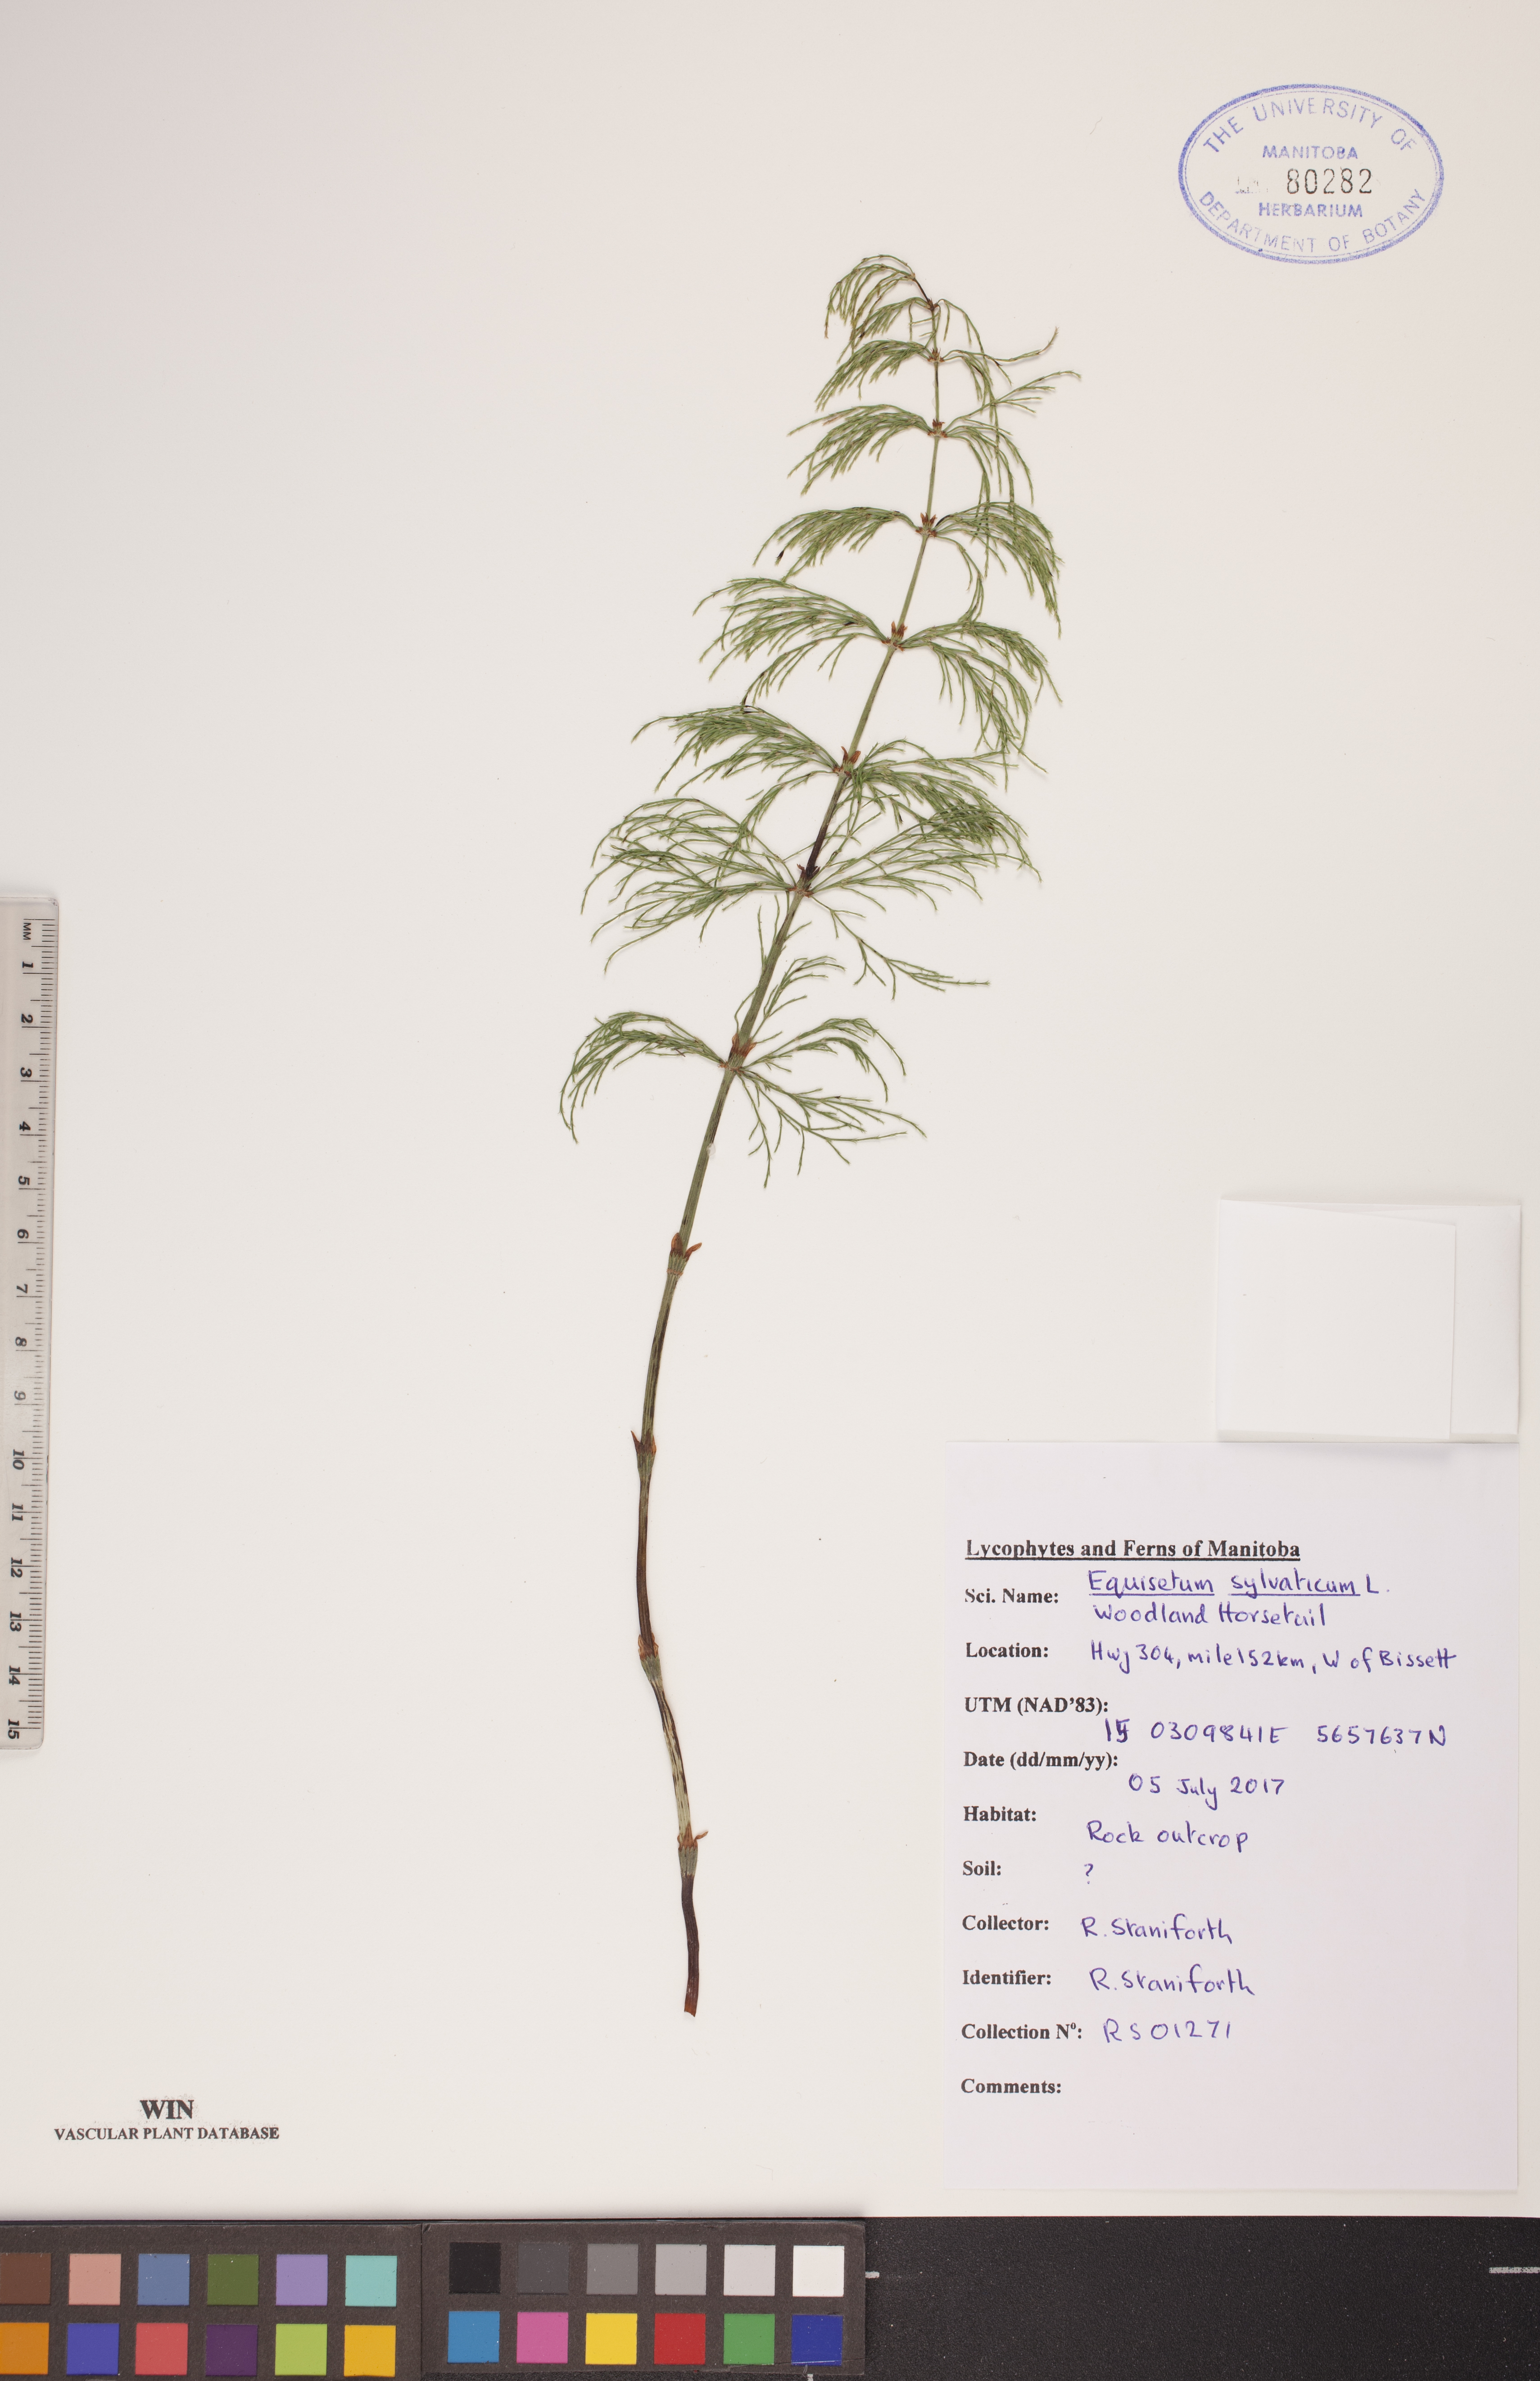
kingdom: Plantae
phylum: Tracheophyta
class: Polypodiopsida
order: Equisetales
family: Equisetaceae
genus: Equisetum
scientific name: Equisetum sylvaticum
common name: Wood horsetail
